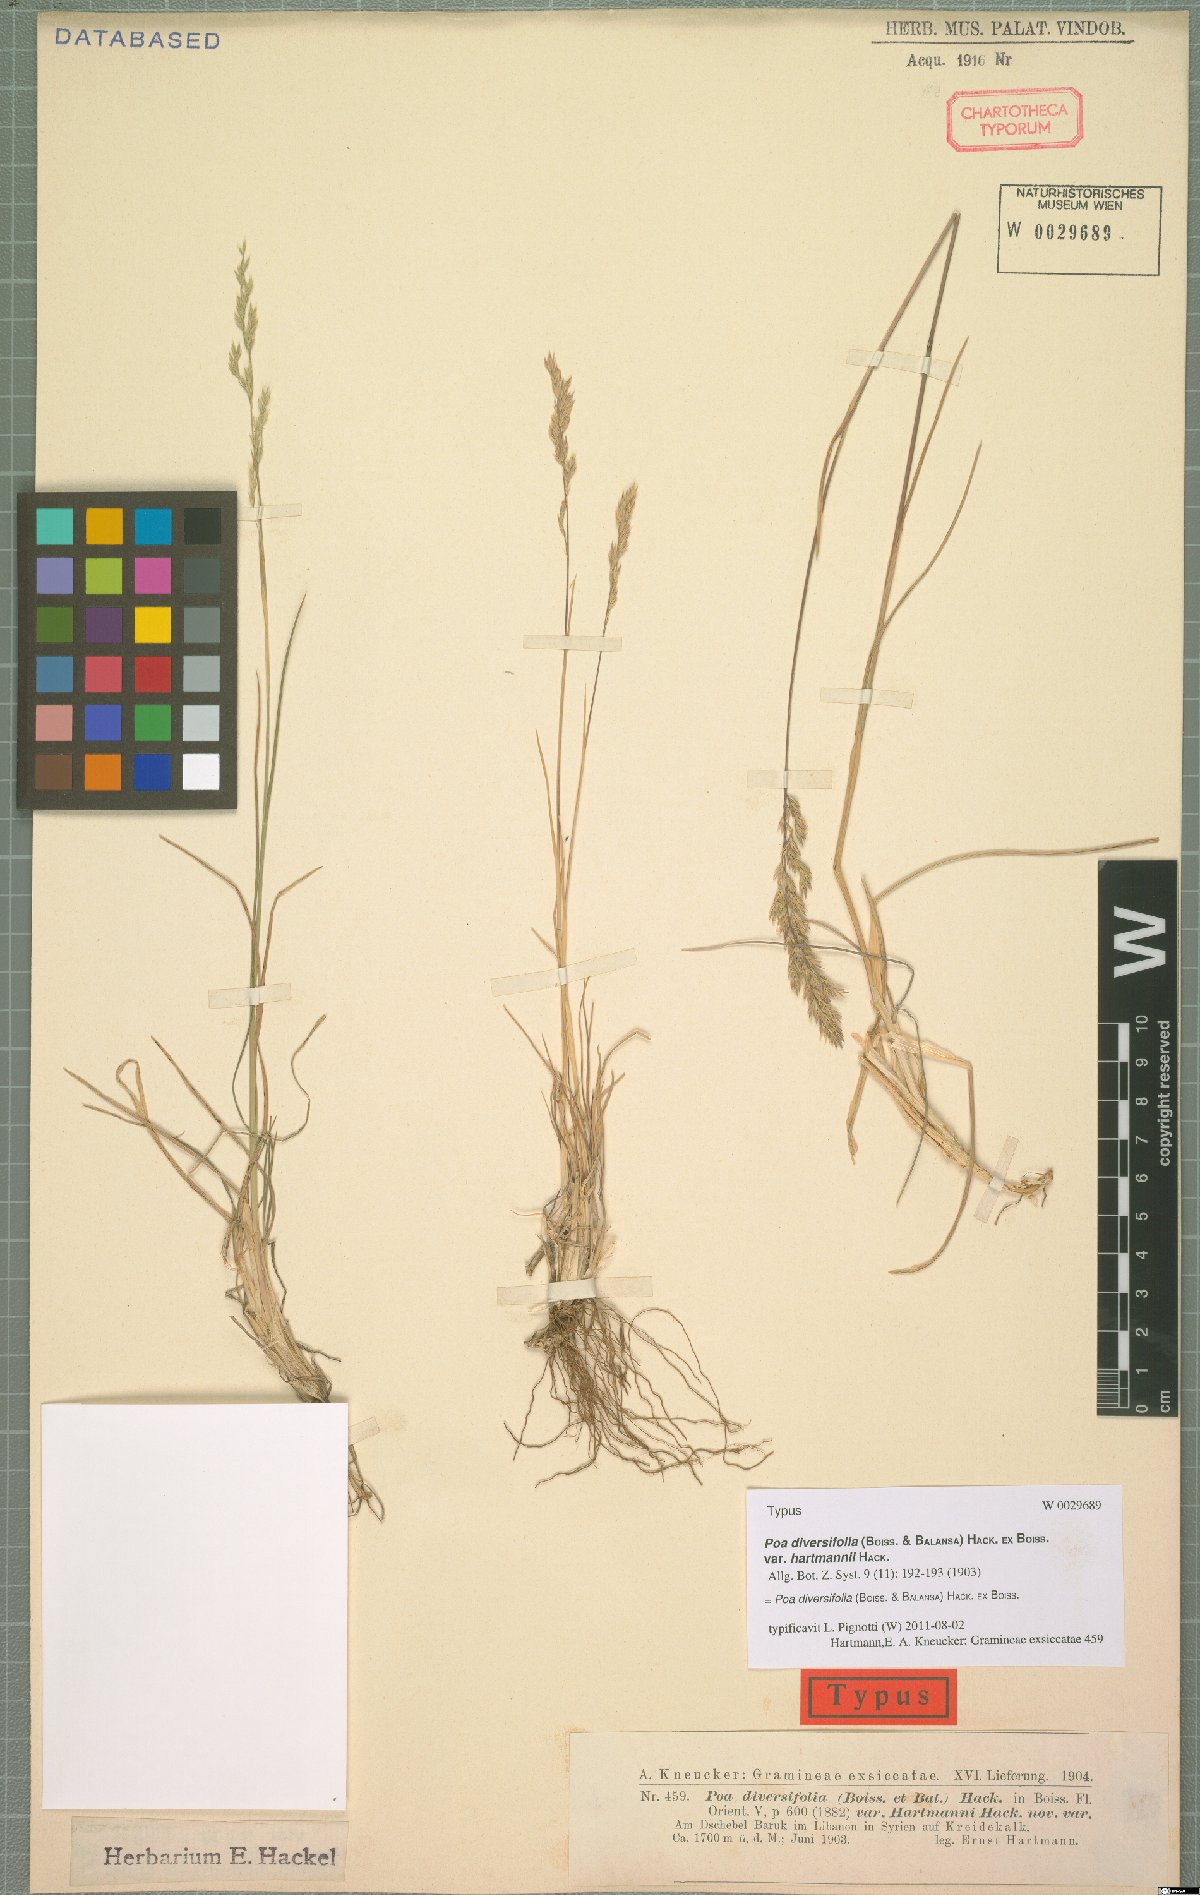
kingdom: Plantae
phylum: Tracheophyta
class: Liliopsida
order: Poales
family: Poaceae
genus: Poa
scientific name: Poa diversifolia
